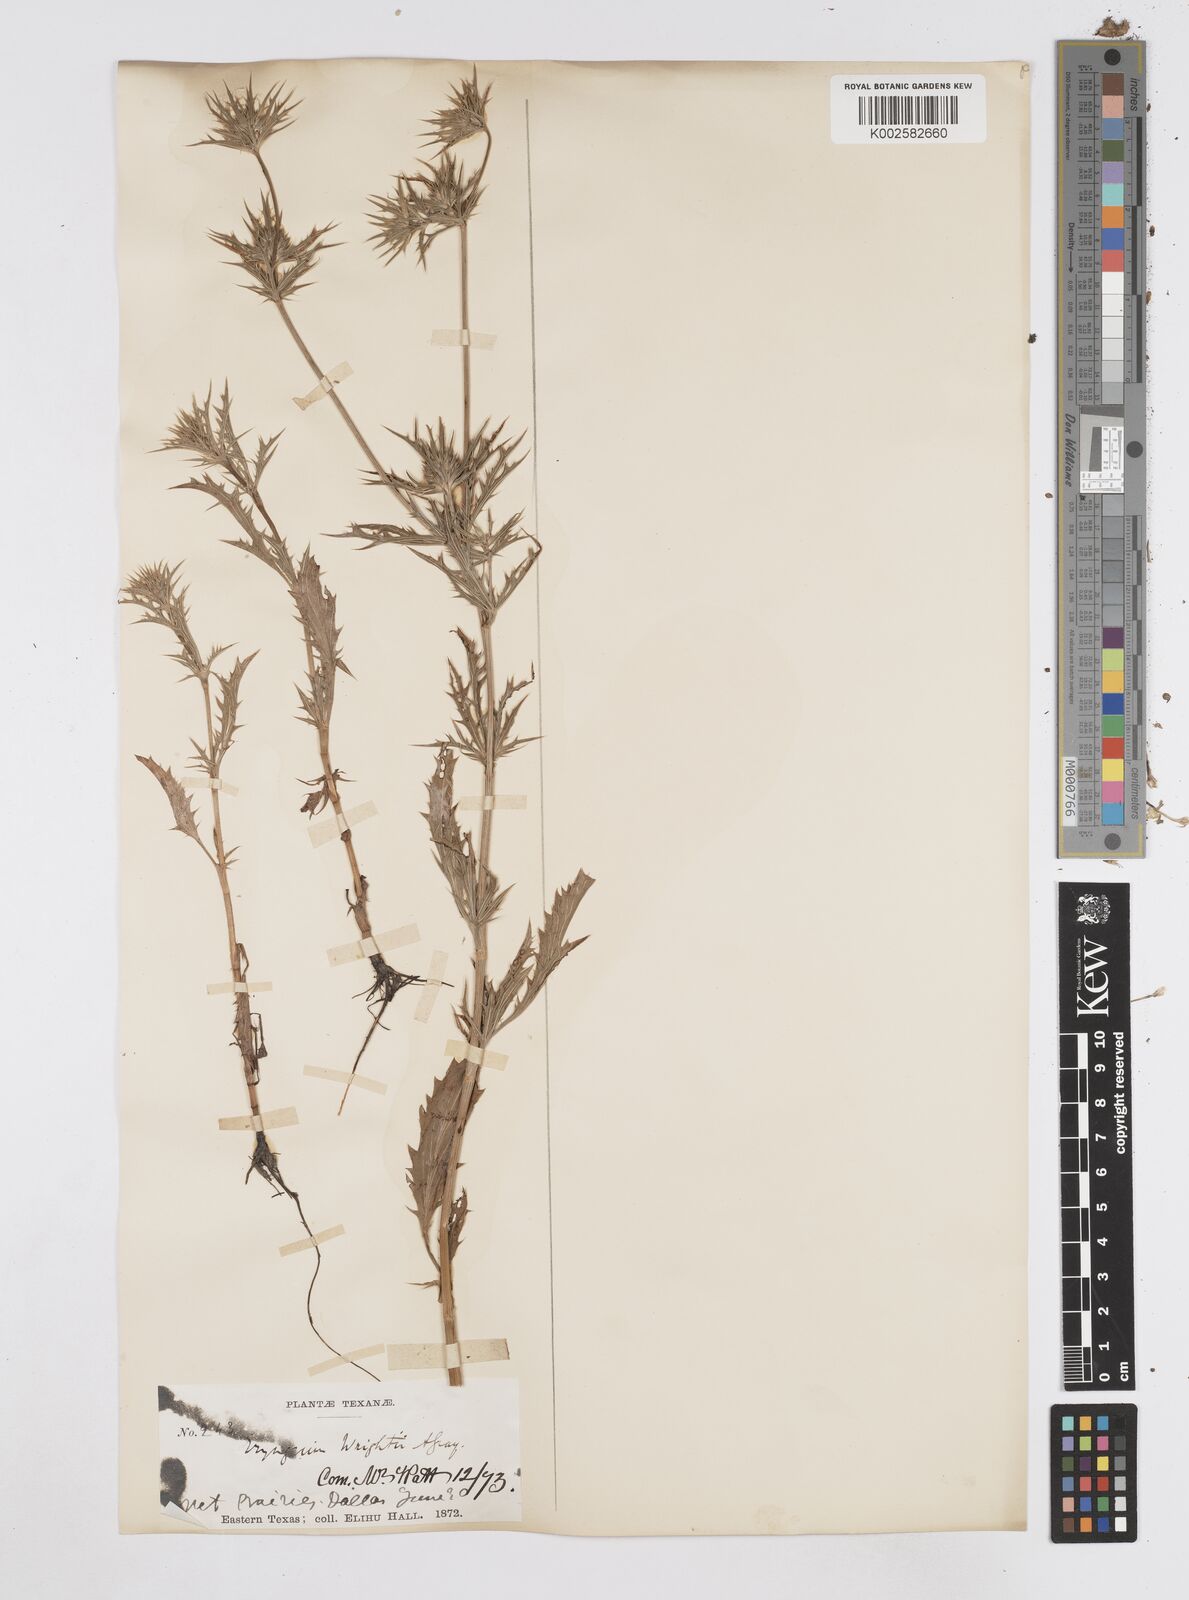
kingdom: Plantae
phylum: Tracheophyta
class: Magnoliopsida
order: Apiales
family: Apiaceae
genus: Eryngium
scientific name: Eryngium heterophyllum
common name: Mexican thistle
